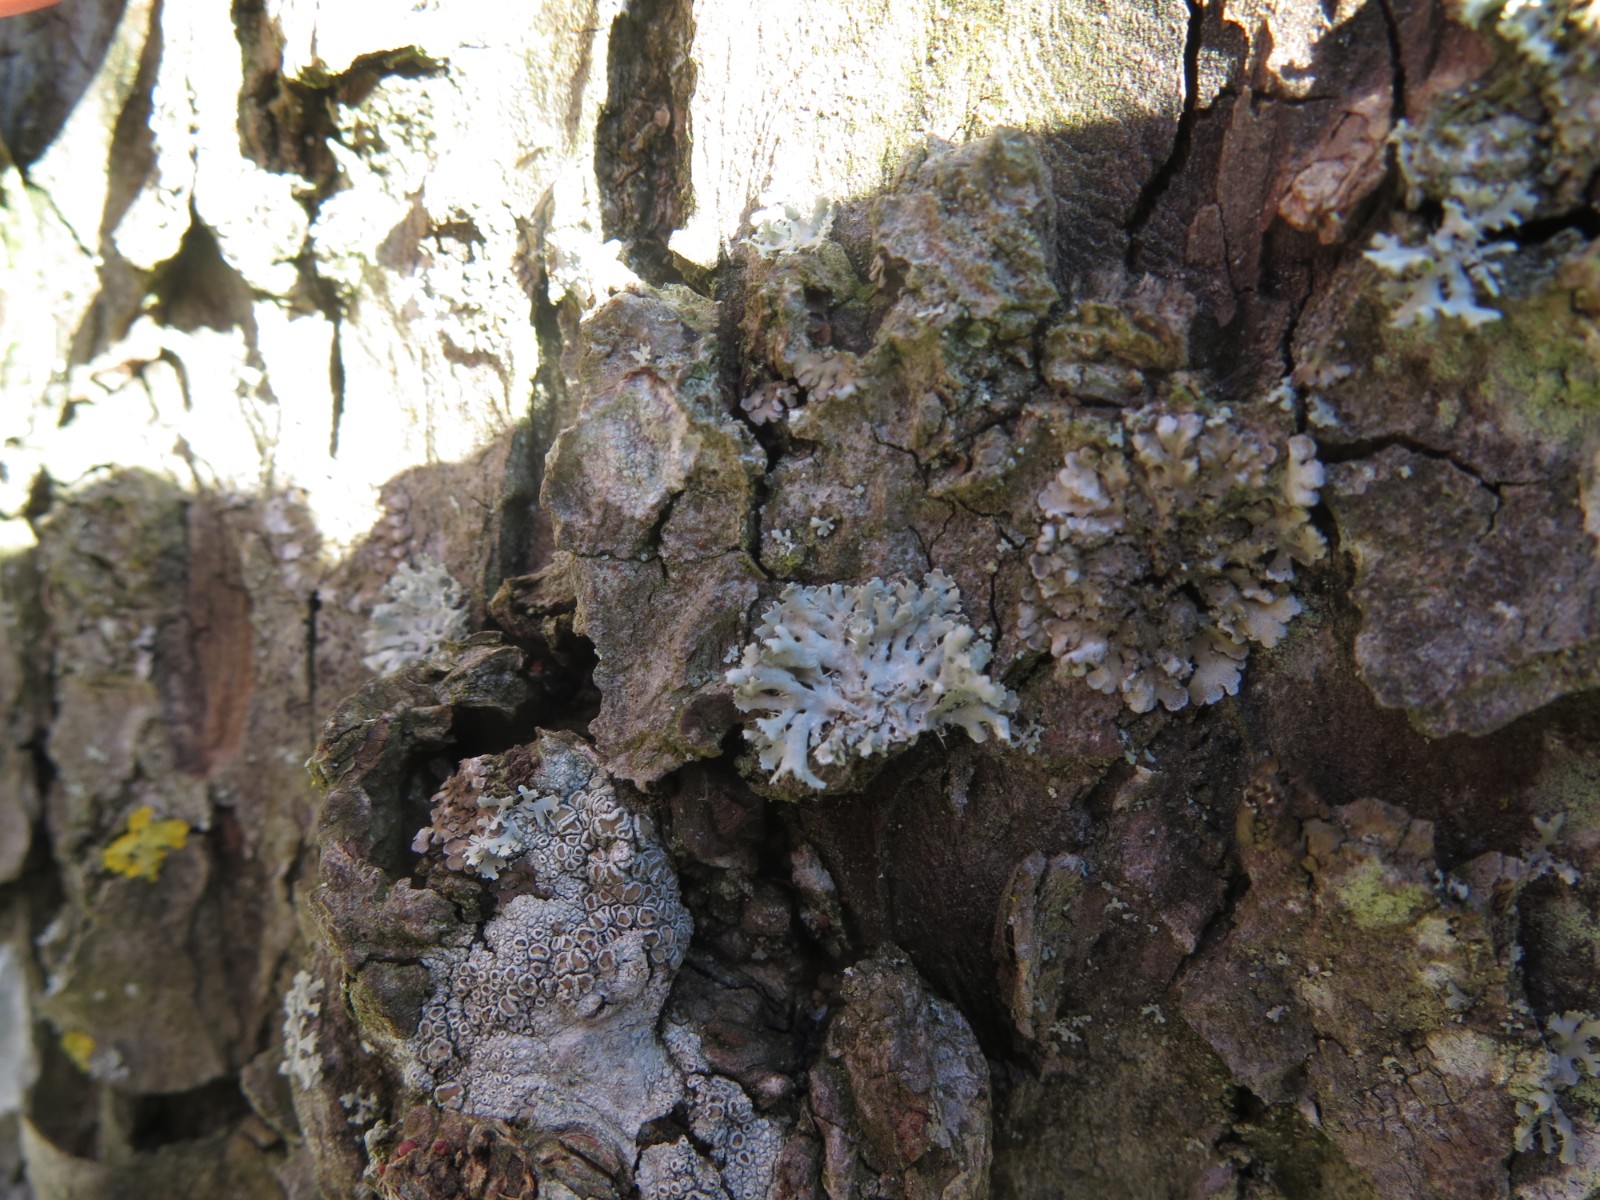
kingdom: Fungi
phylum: Ascomycota
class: Lecanoromycetes
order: Caliciales
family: Physciaceae
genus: Physcia
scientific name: Physcia adscendens
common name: hætte-rosetlav
